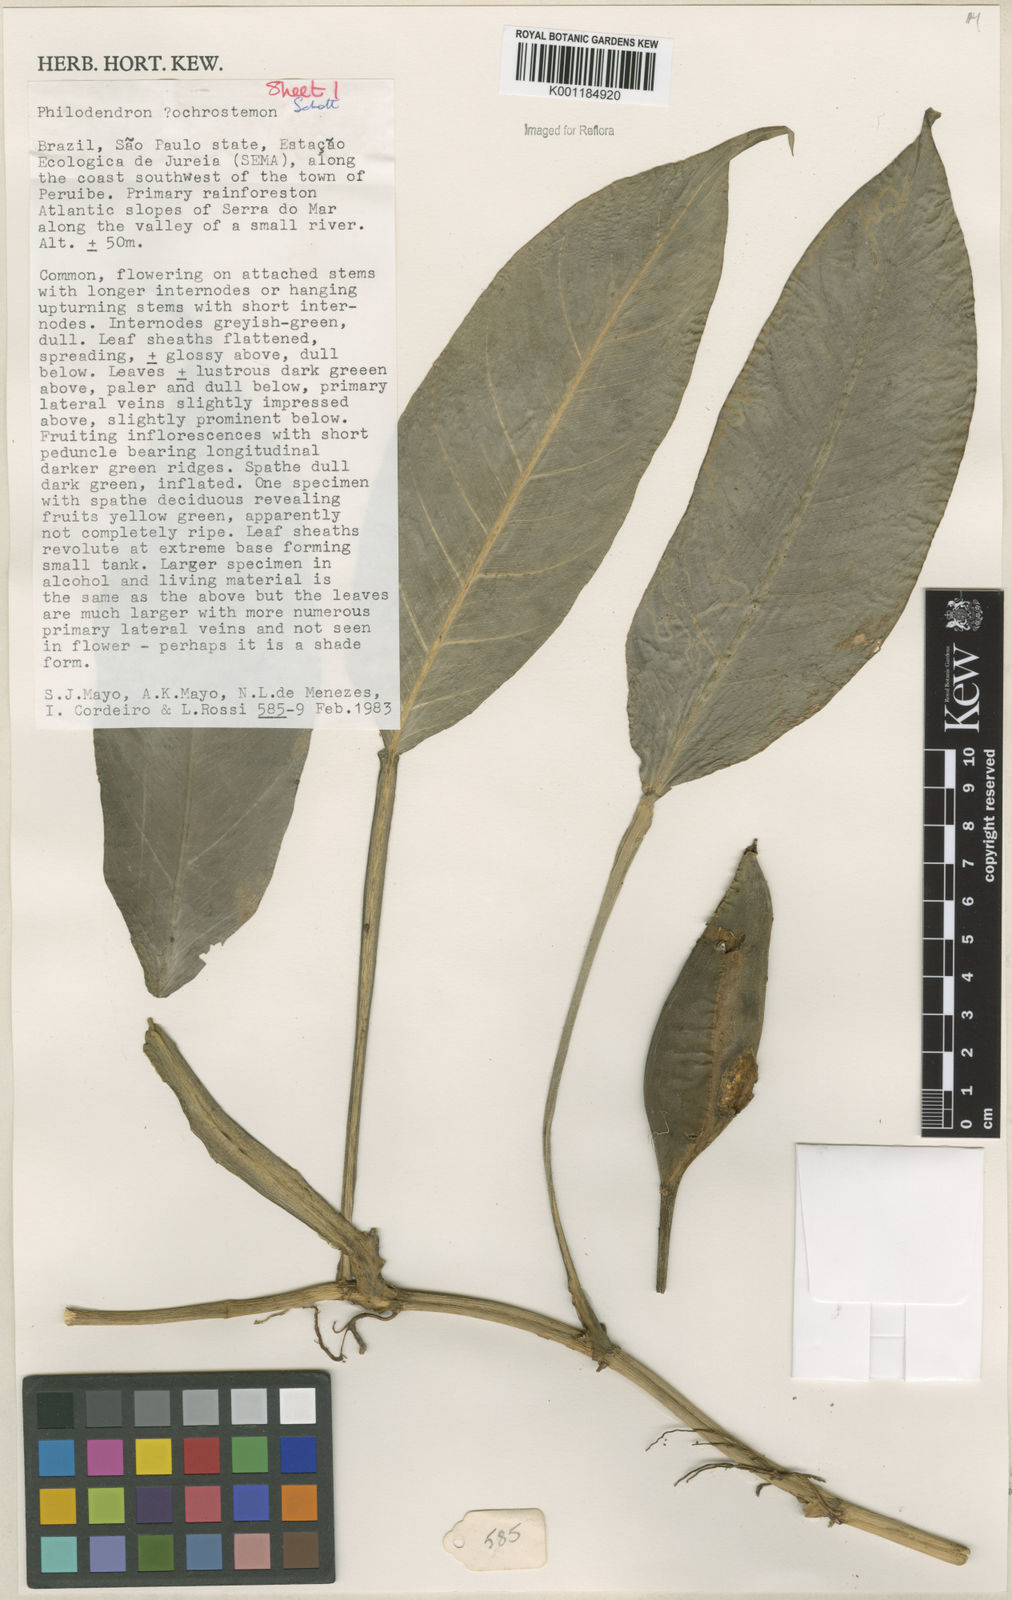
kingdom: Plantae
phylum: Tracheophyta
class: Liliopsida
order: Alismatales
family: Araceae
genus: Philodendron
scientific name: Philodendron ochrostemon
